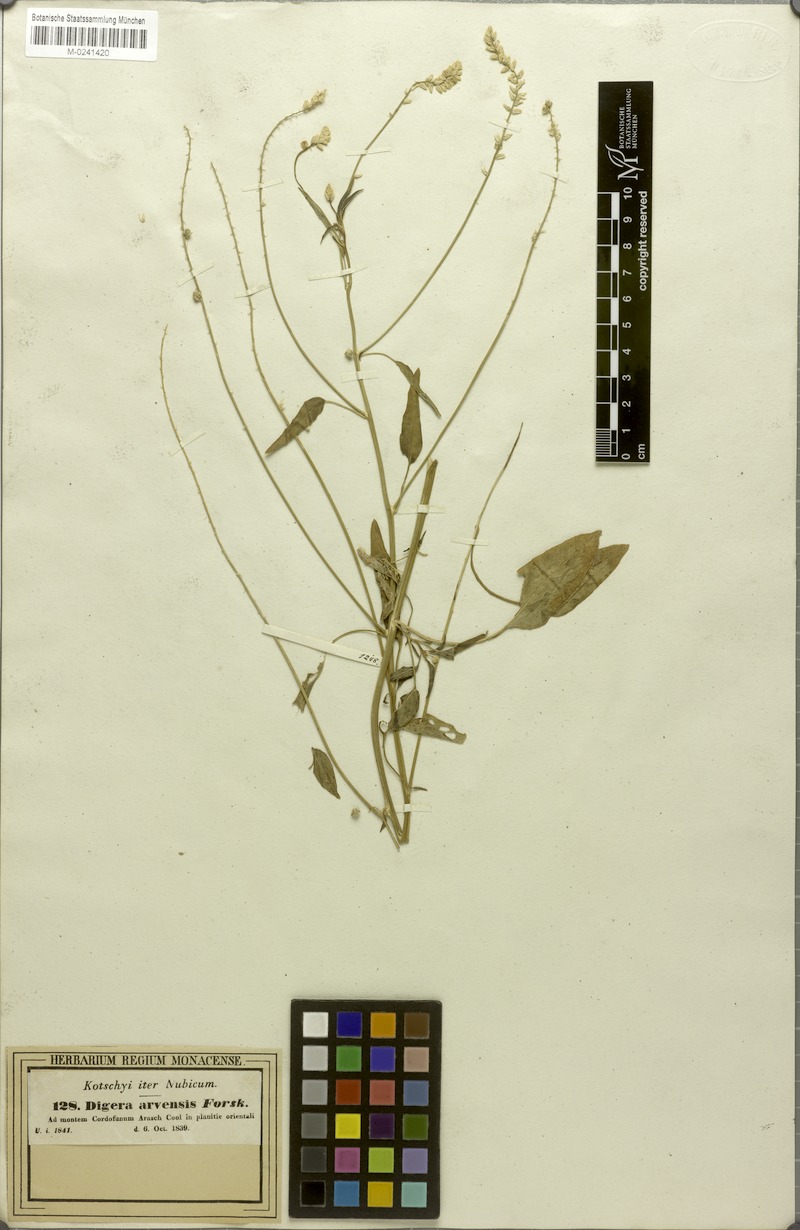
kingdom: Plantae
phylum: Tracheophyta
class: Magnoliopsida
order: Caryophyllales
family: Amaranthaceae
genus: Digera
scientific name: Digera muricata
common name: False amaranth
